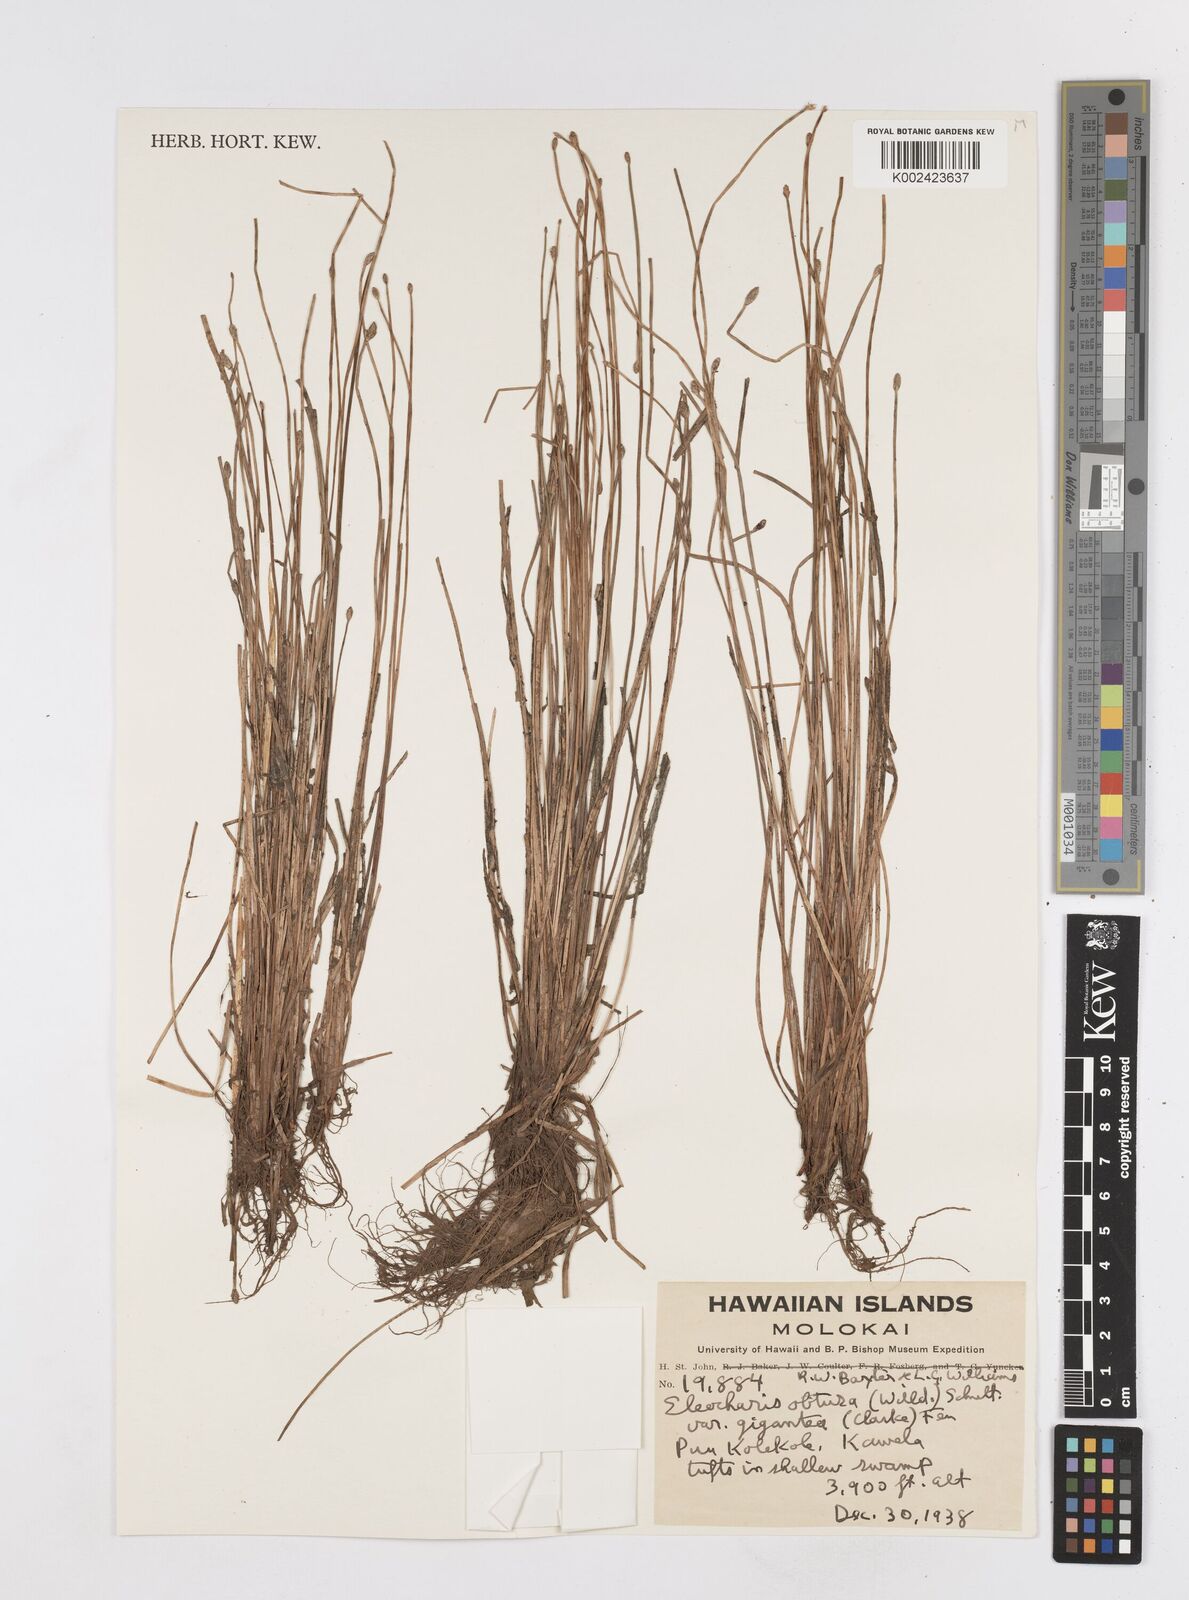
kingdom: Plantae
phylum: Tracheophyta
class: Liliopsida
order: Poales
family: Cyperaceae
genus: Eleocharis
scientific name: Eleocharis obtusa
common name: Blunt spikerush
